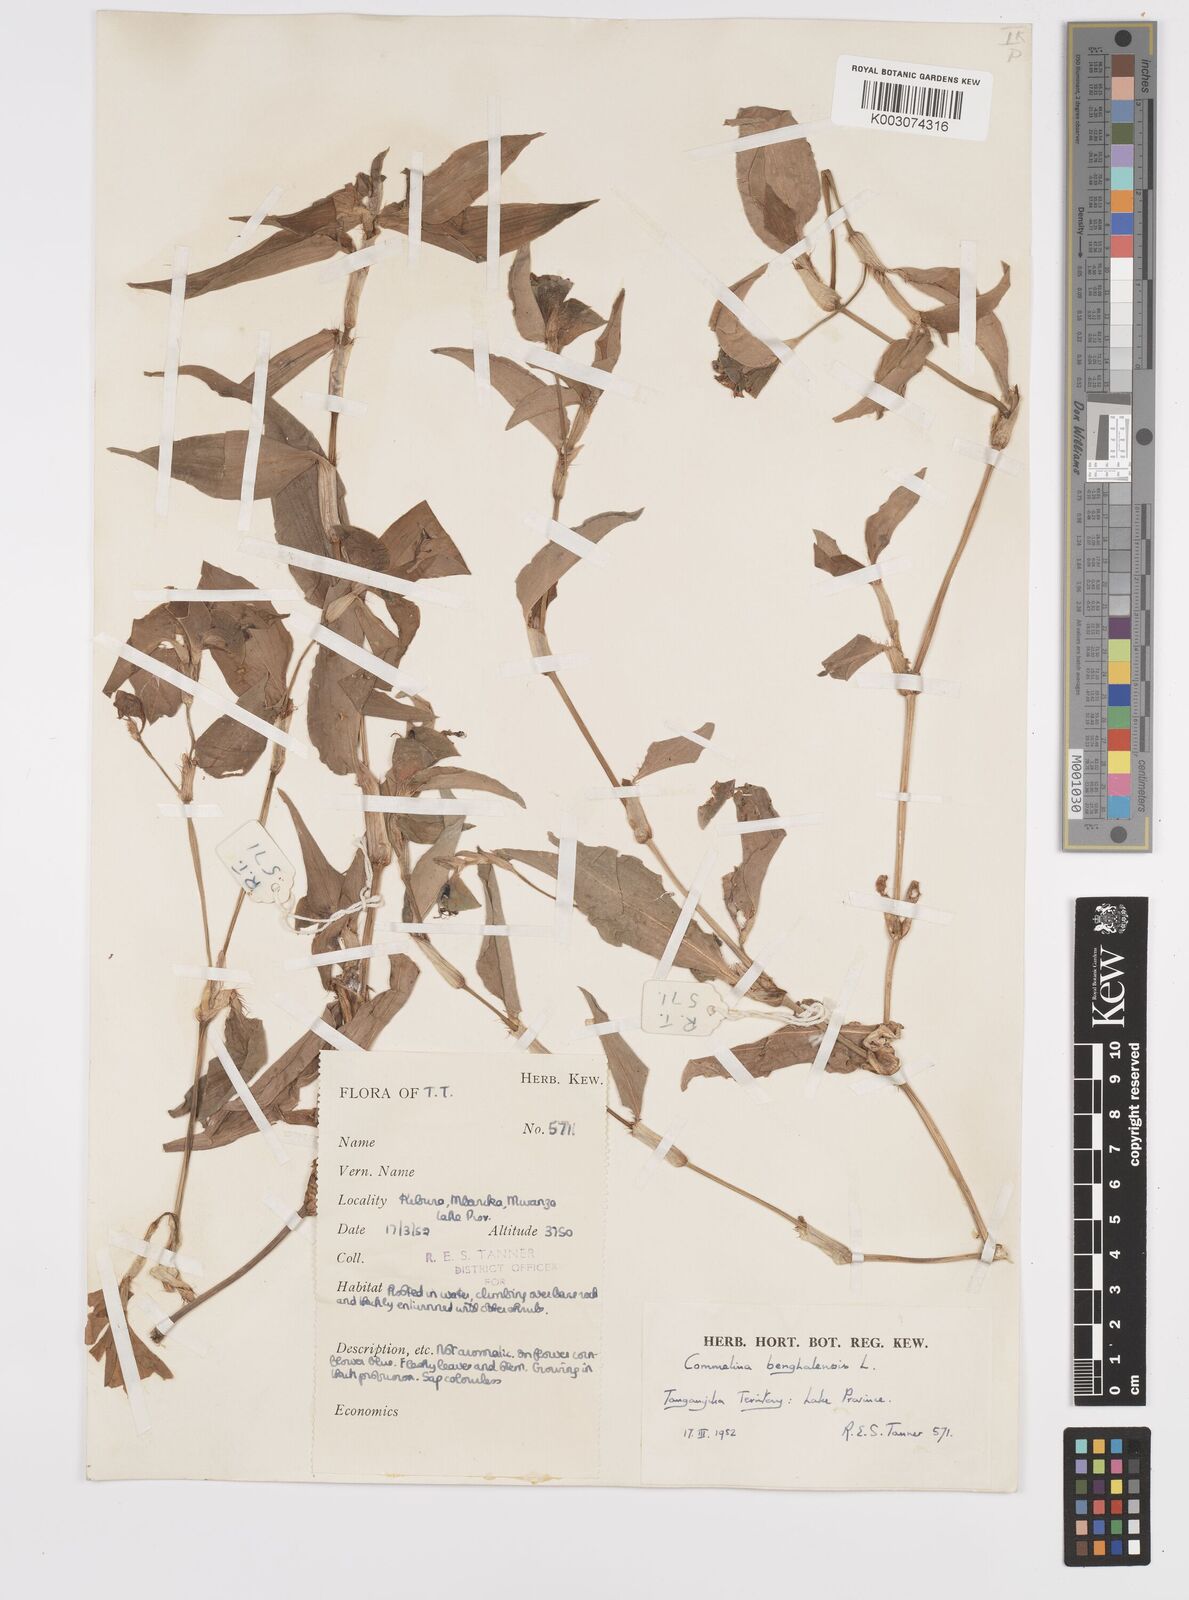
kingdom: Plantae
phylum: Tracheophyta
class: Liliopsida
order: Commelinales
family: Commelinaceae
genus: Commelina
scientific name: Commelina benghalensis
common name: Jio
